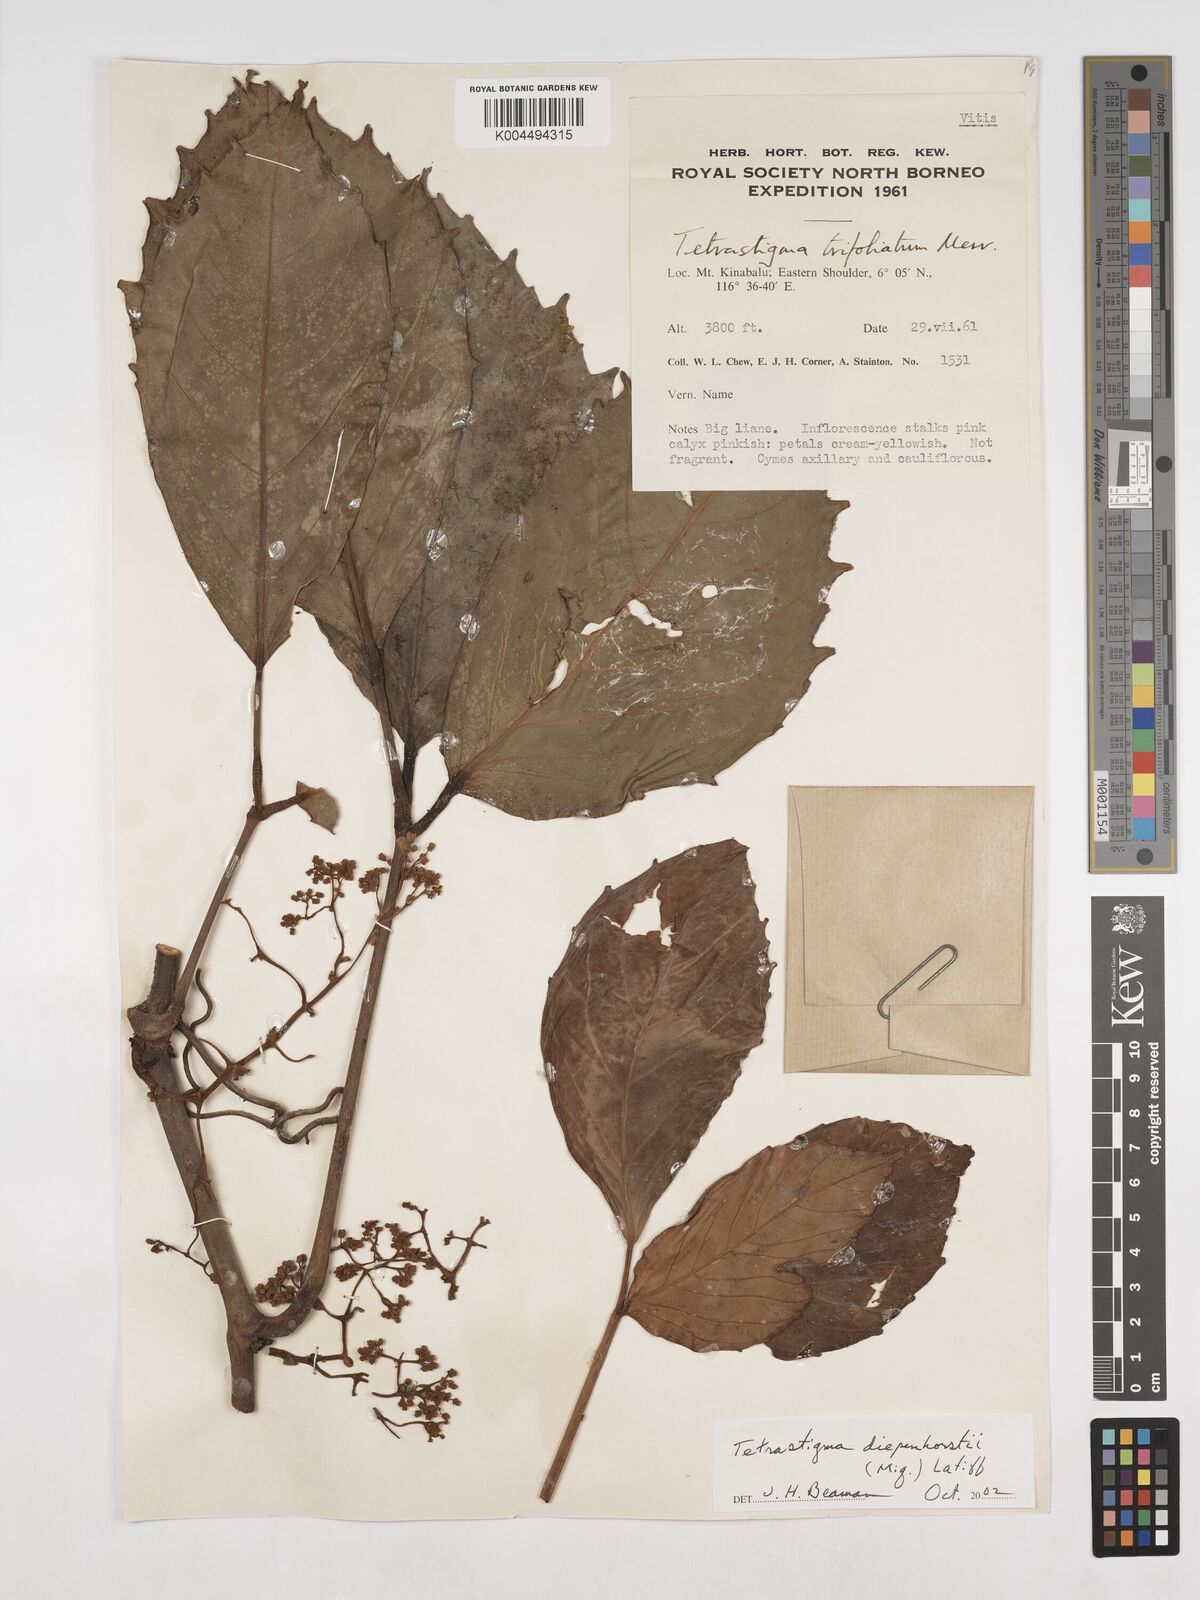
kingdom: Plantae
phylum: Tracheophyta
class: Magnoliopsida
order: Vitales
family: Vitaceae
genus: Tetrastigma
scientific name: Tetrastigma diepenhorstii
